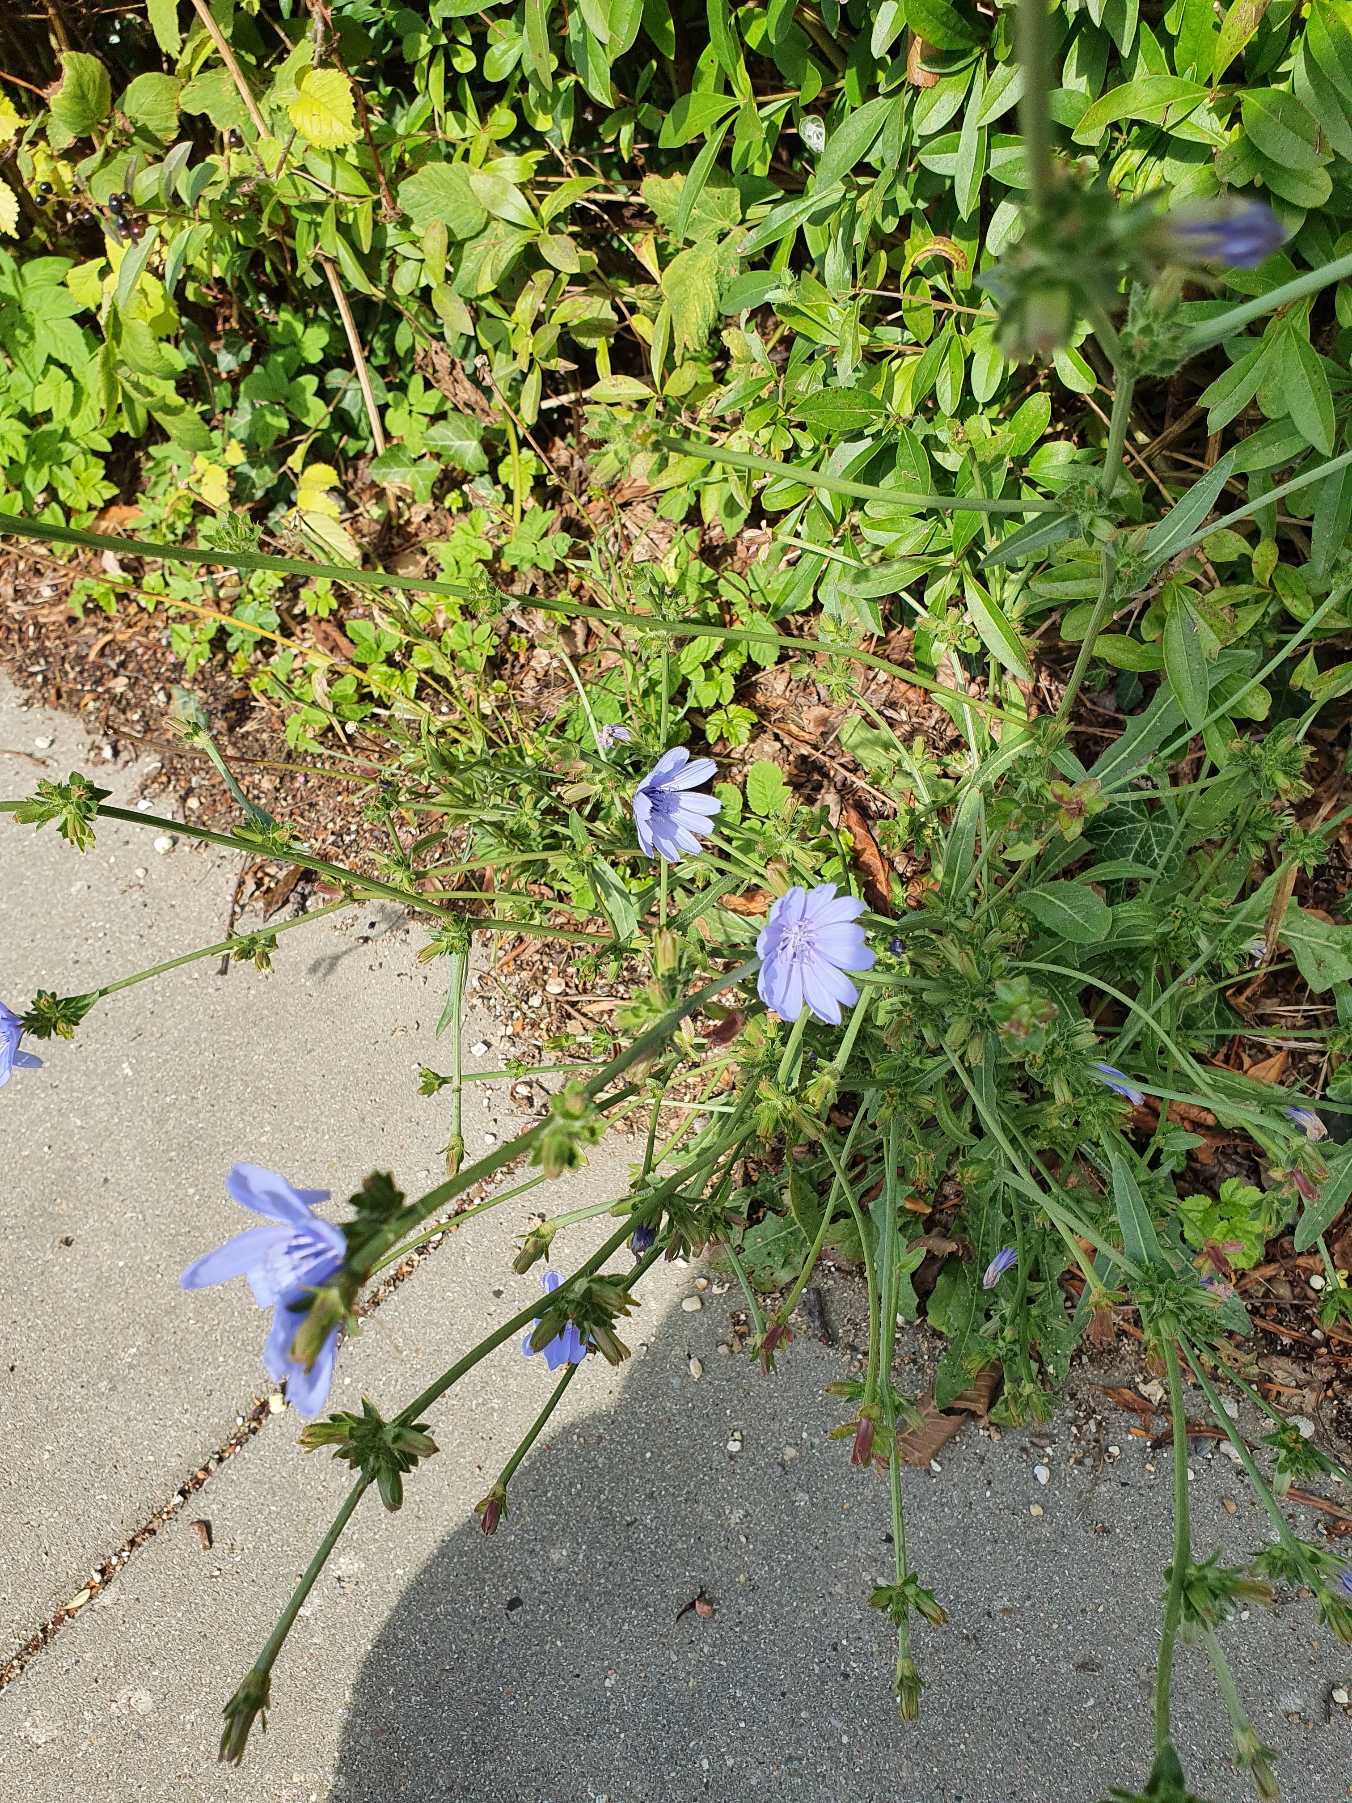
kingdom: Plantae
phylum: Tracheophyta
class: Magnoliopsida
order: Asterales
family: Asteraceae
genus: Cichorium
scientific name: Cichorium intybus
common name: Cikorie
